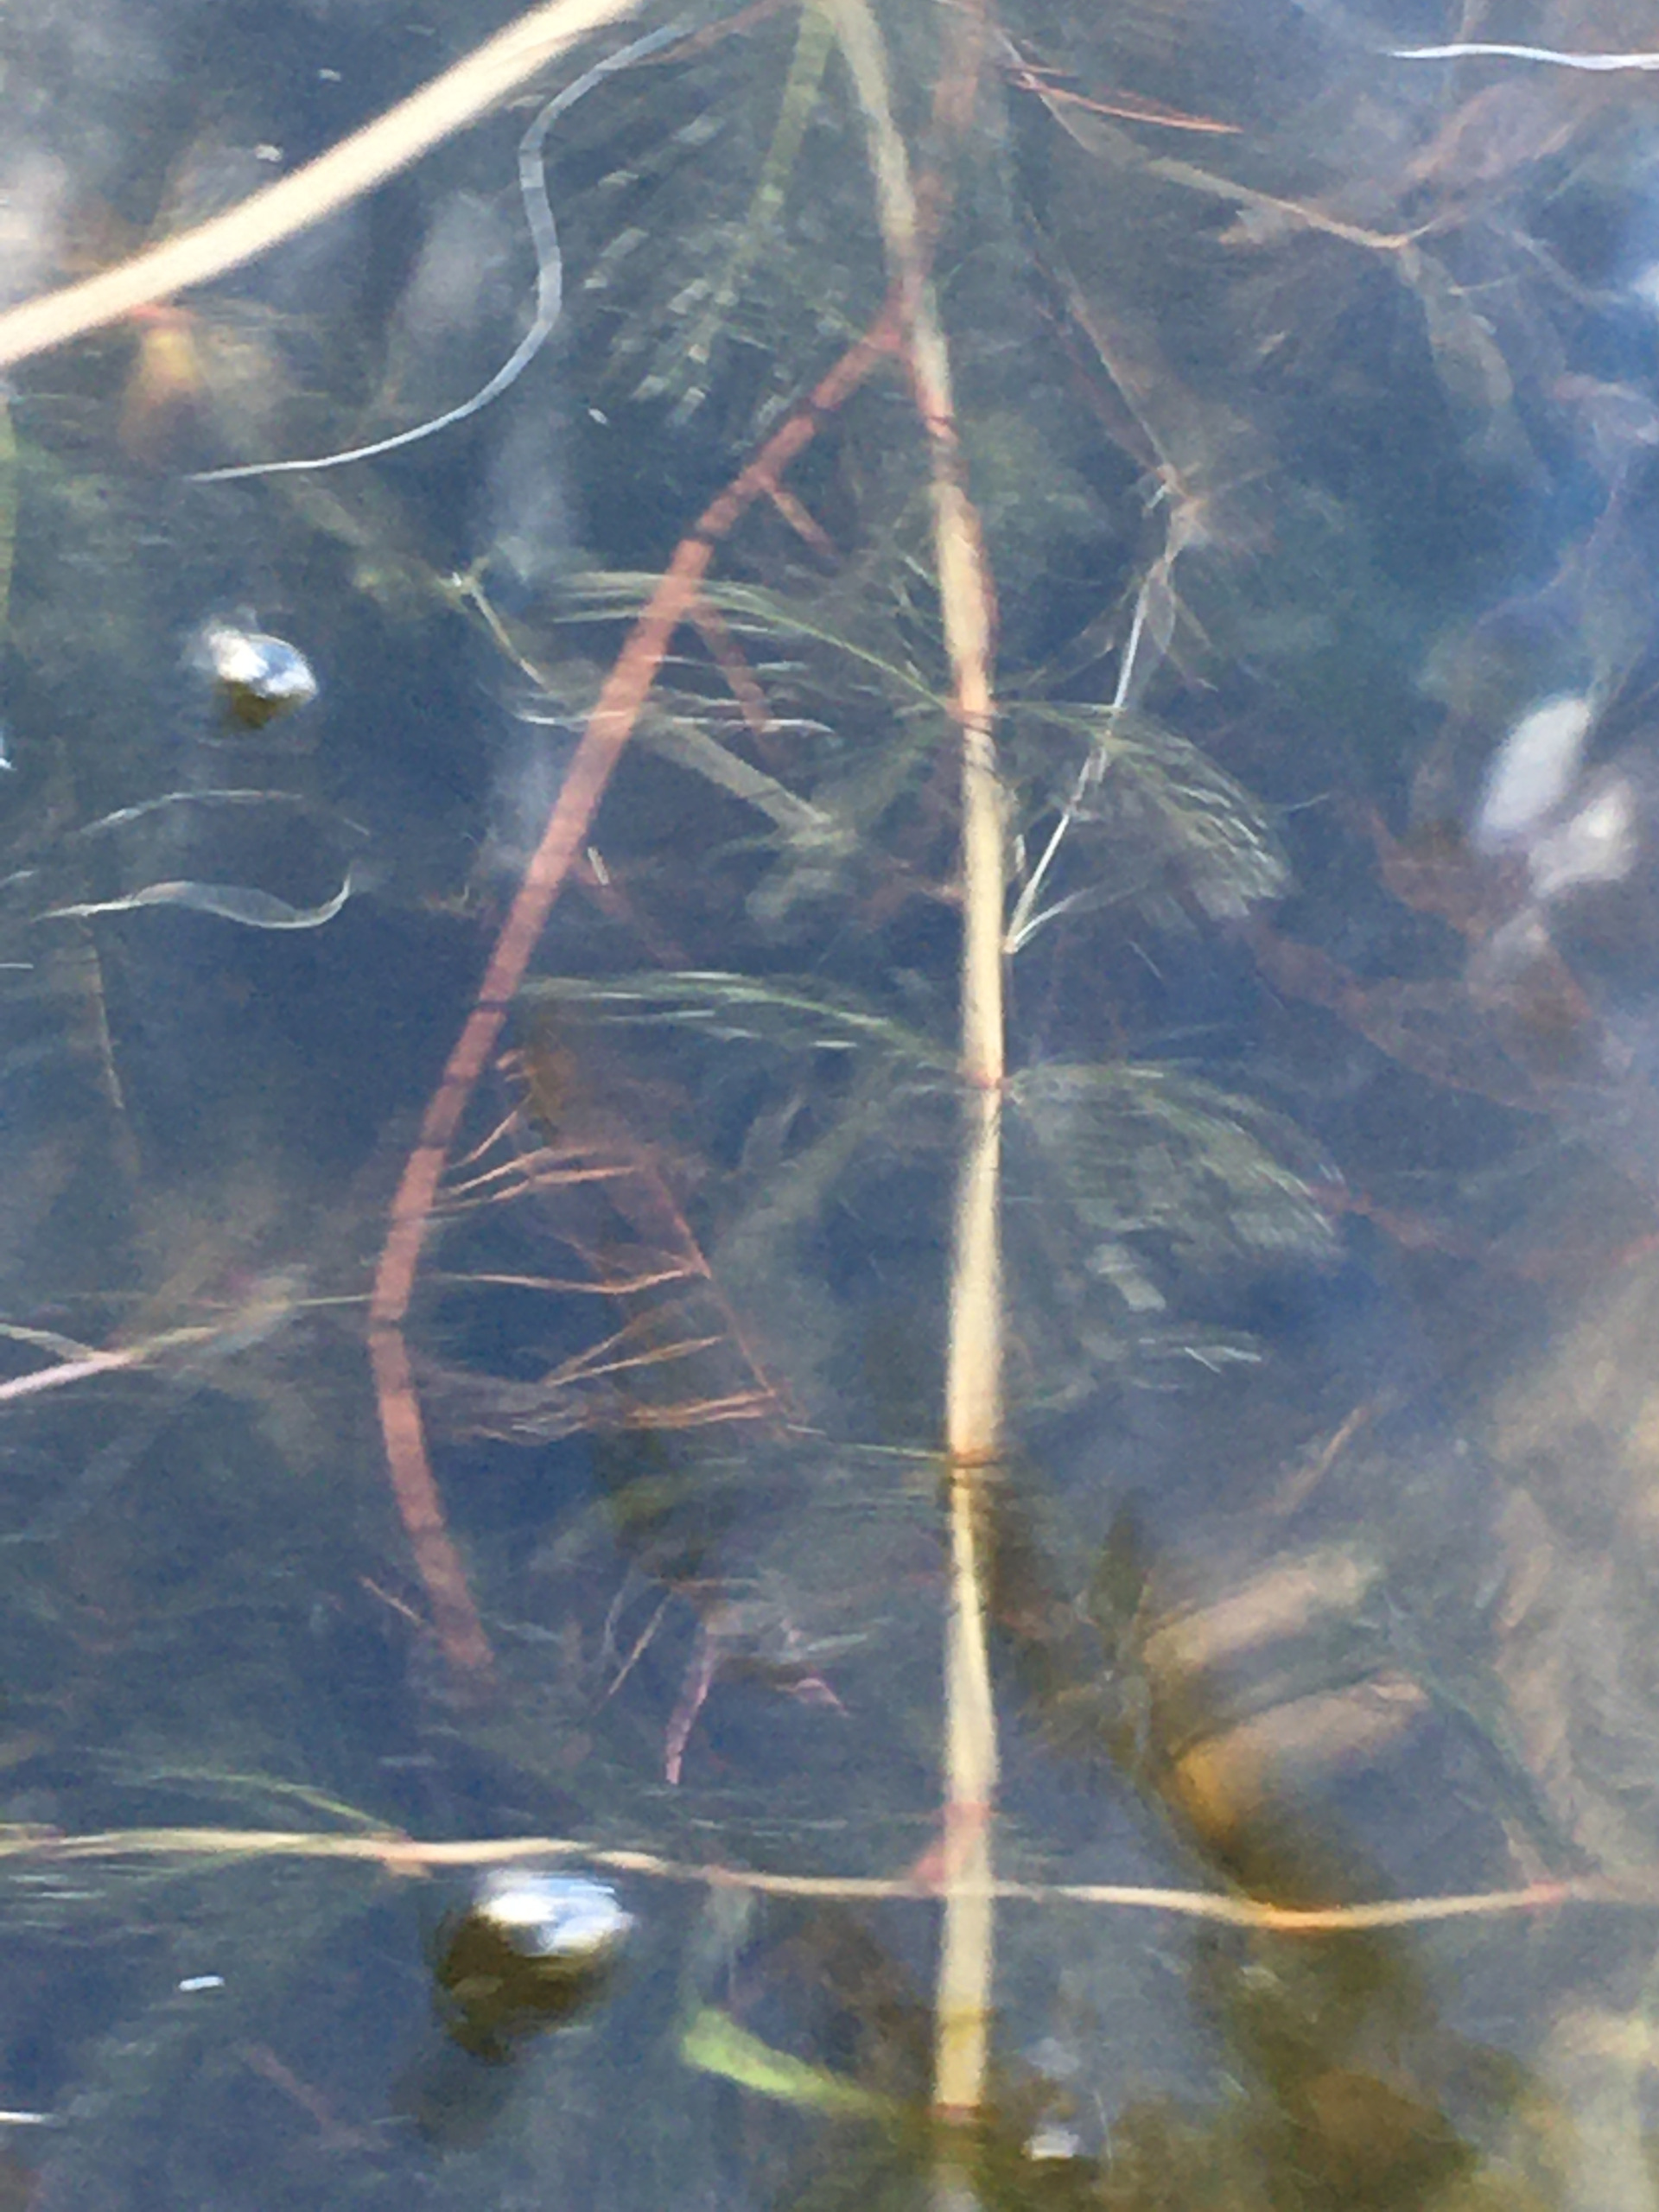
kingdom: Plantae
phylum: Tracheophyta
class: Magnoliopsida
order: Saxifragales
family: Haloragaceae
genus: Myriophyllum
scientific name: Myriophyllum spicatum
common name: Aks-tusindblad
